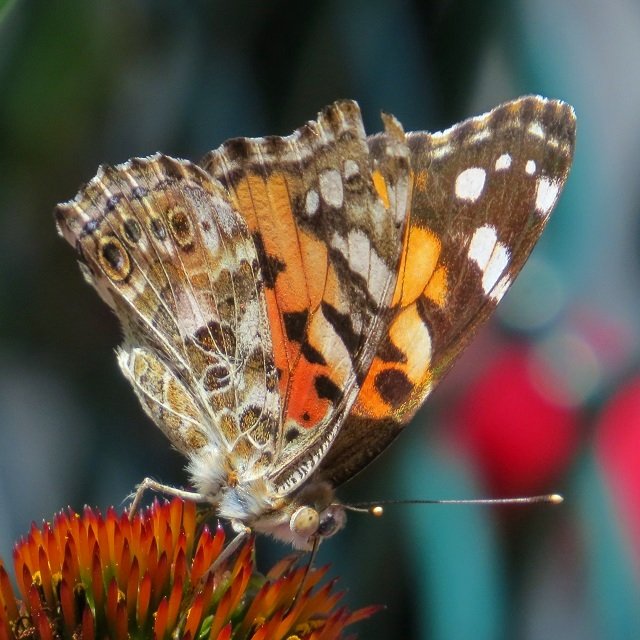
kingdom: Animalia
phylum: Arthropoda
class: Insecta
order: Lepidoptera
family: Nymphalidae
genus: Vanessa
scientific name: Vanessa cardui
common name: Painted Lady
